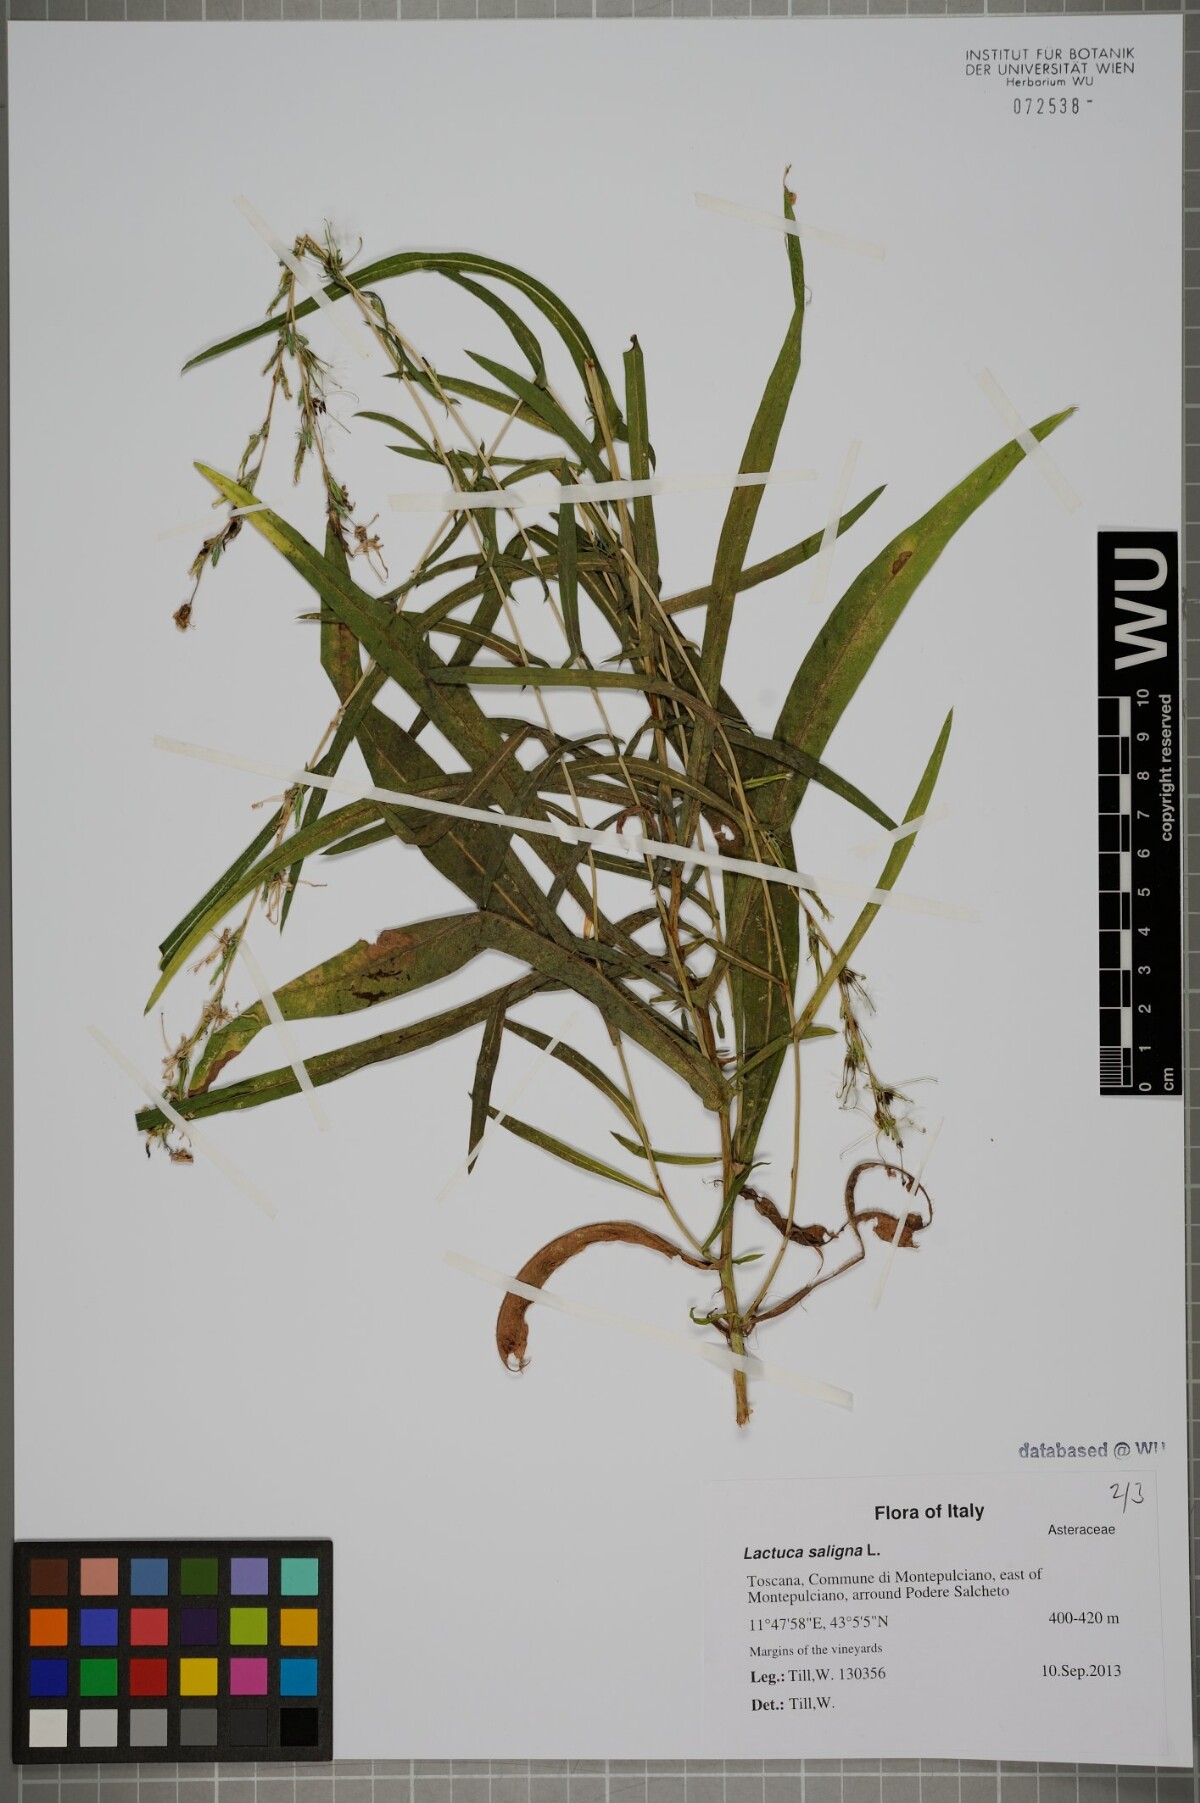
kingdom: Plantae
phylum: Tracheophyta
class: Magnoliopsida
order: Asterales
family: Asteraceae
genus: Lactuca
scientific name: Lactuca saligna
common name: Wild lettuce
